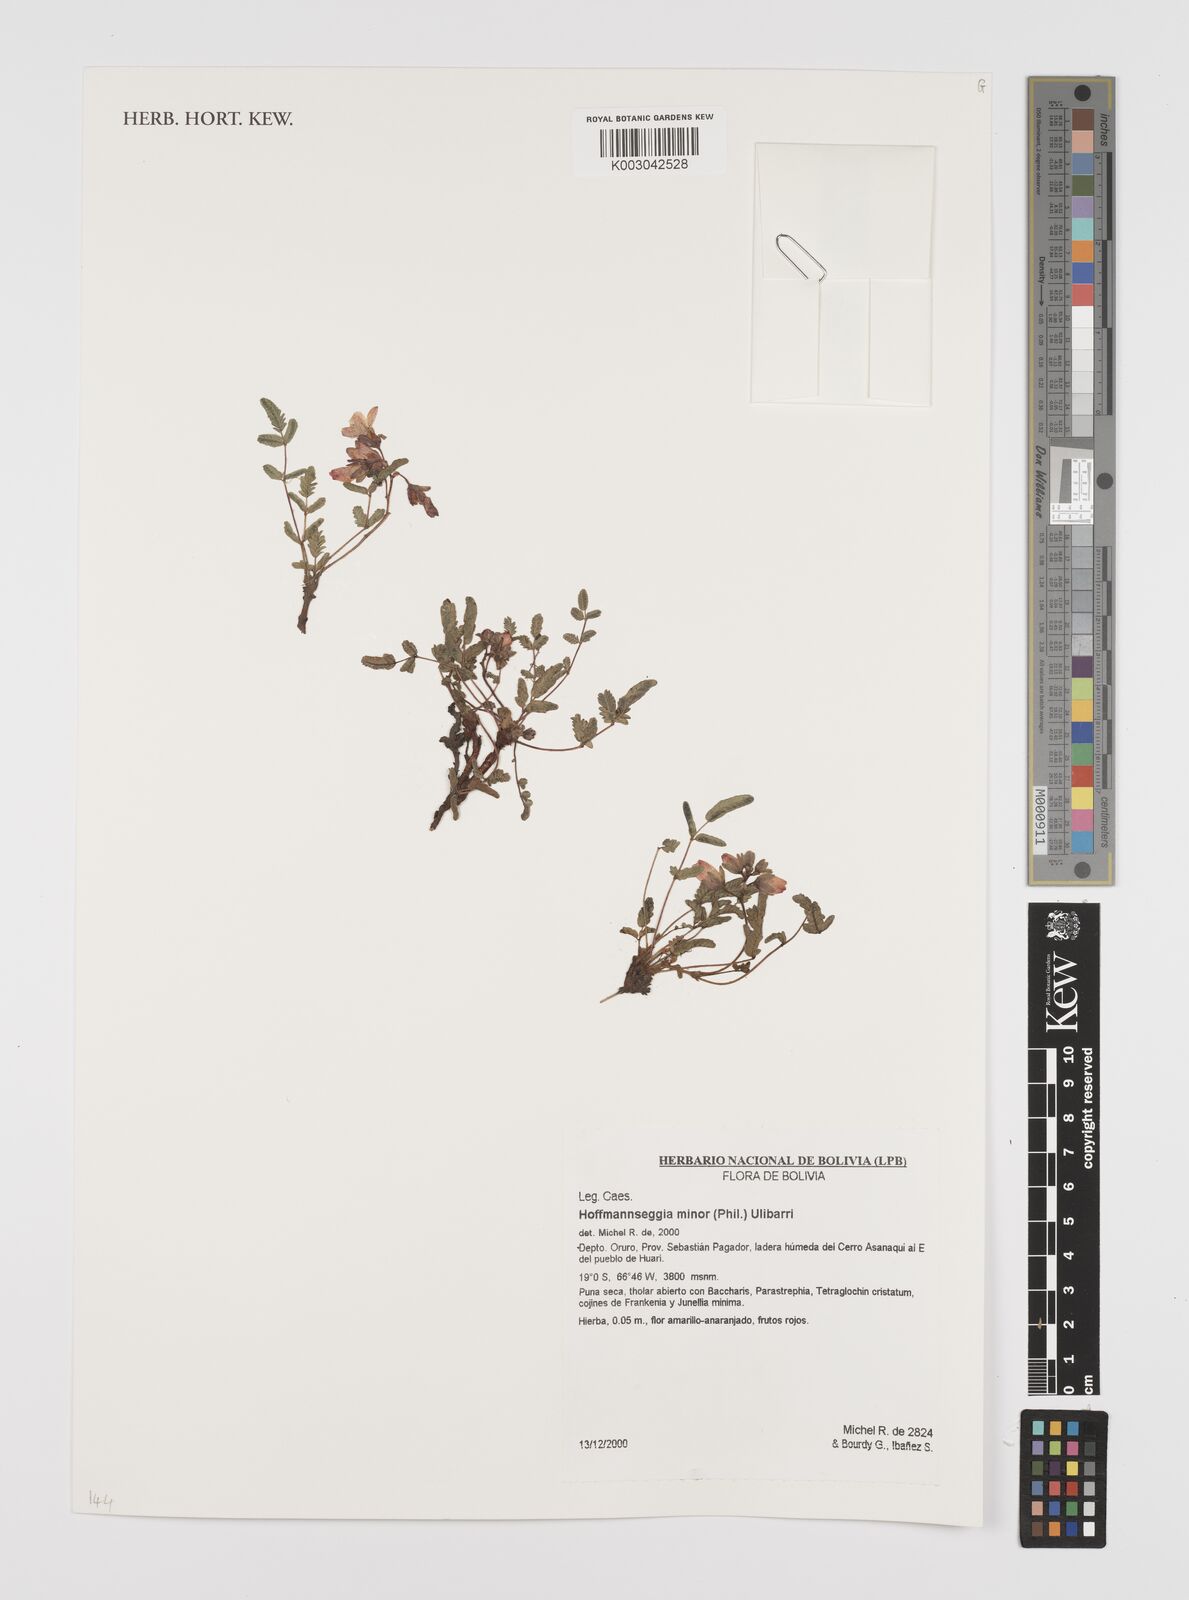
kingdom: Plantae
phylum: Tracheophyta
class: Magnoliopsida
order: Fabales
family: Fabaceae
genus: Hoffmannseggia
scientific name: Hoffmannseggia minor
